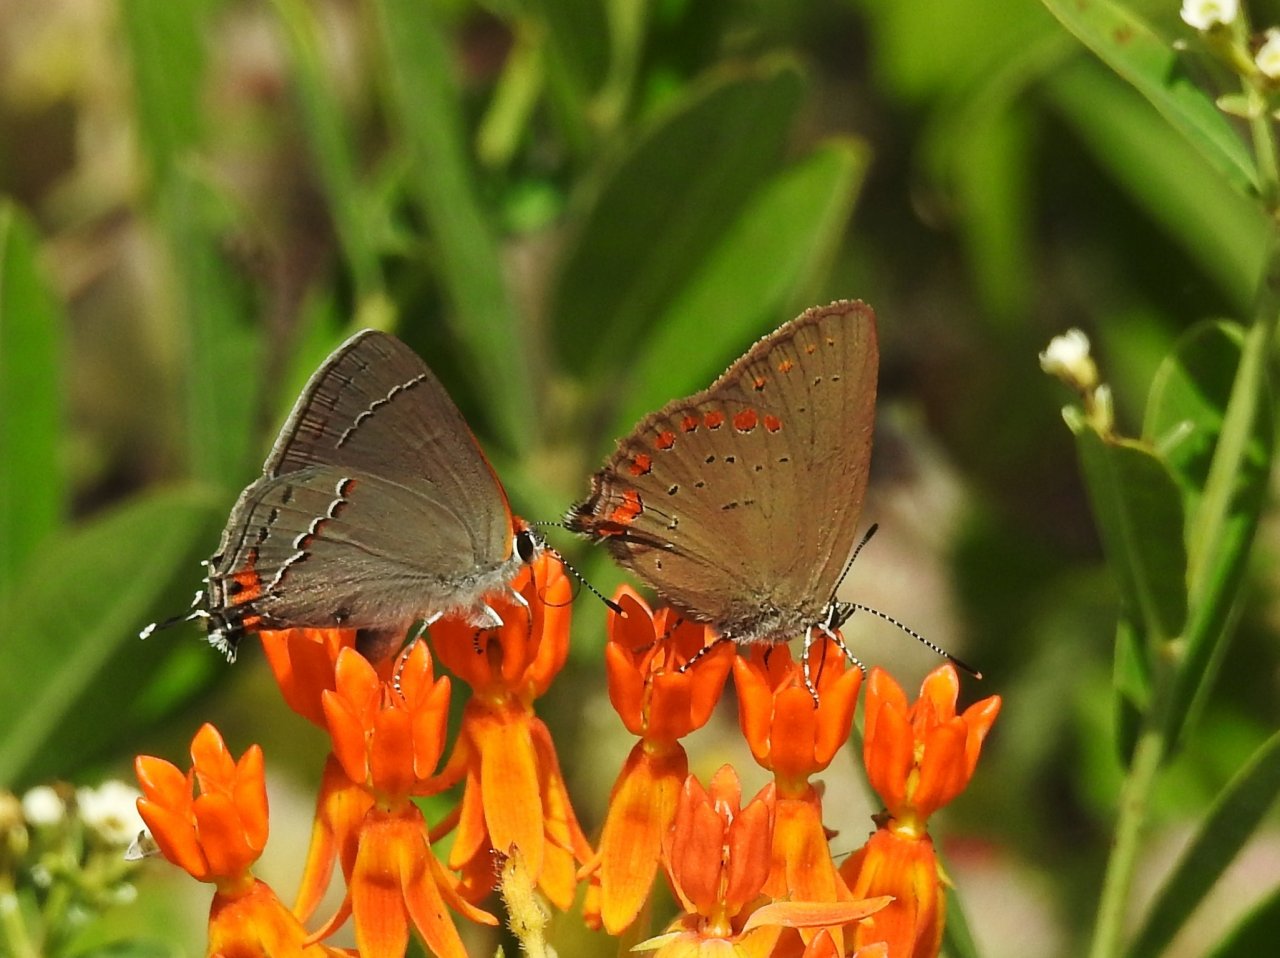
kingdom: Animalia
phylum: Arthropoda
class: Insecta
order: Lepidoptera
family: Lycaenidae
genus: Harkenclenus
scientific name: Harkenclenus titus
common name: Coral Hairstreak
